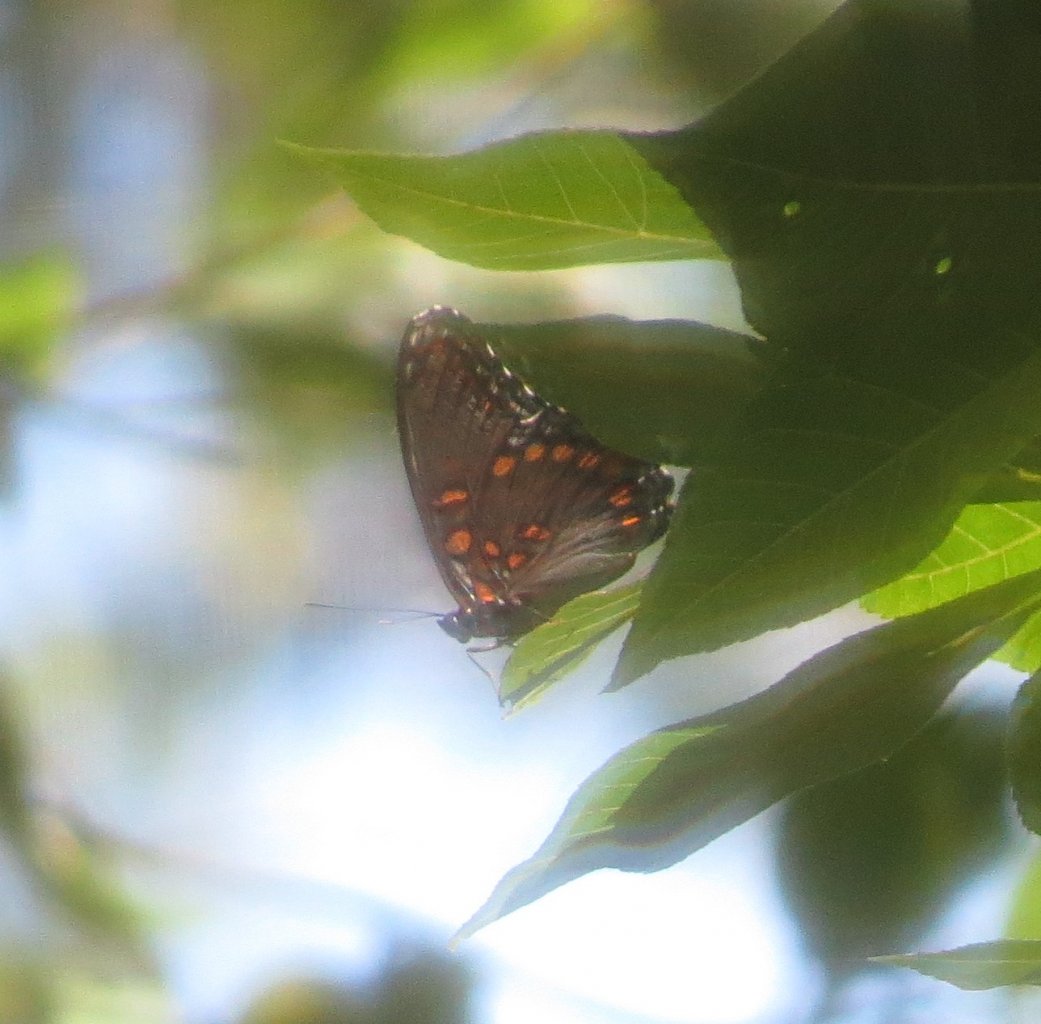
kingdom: Animalia
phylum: Arthropoda
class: Insecta
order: Lepidoptera
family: Nymphalidae
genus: Limenitis
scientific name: Limenitis astyanax
